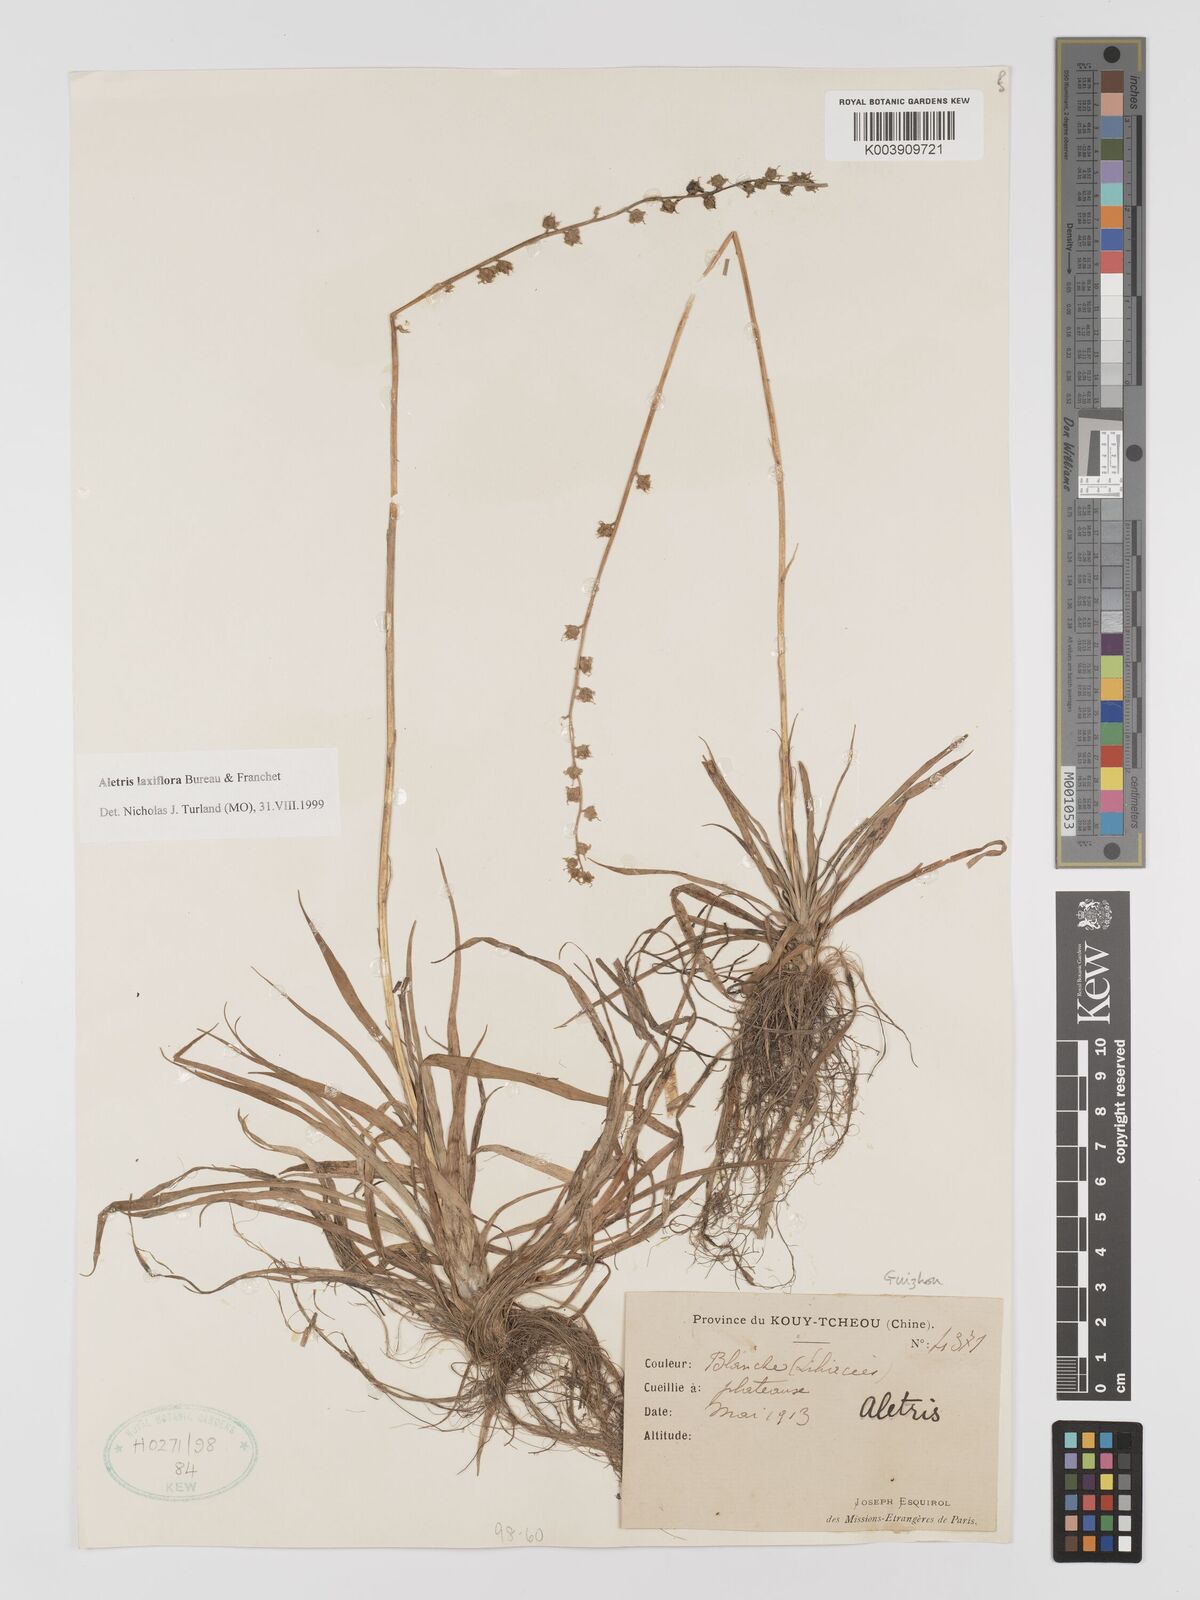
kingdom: Plantae
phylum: Tracheophyta
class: Liliopsida
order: Dioscoreales
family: Nartheciaceae
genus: Aletris
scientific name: Aletris laxiflora
